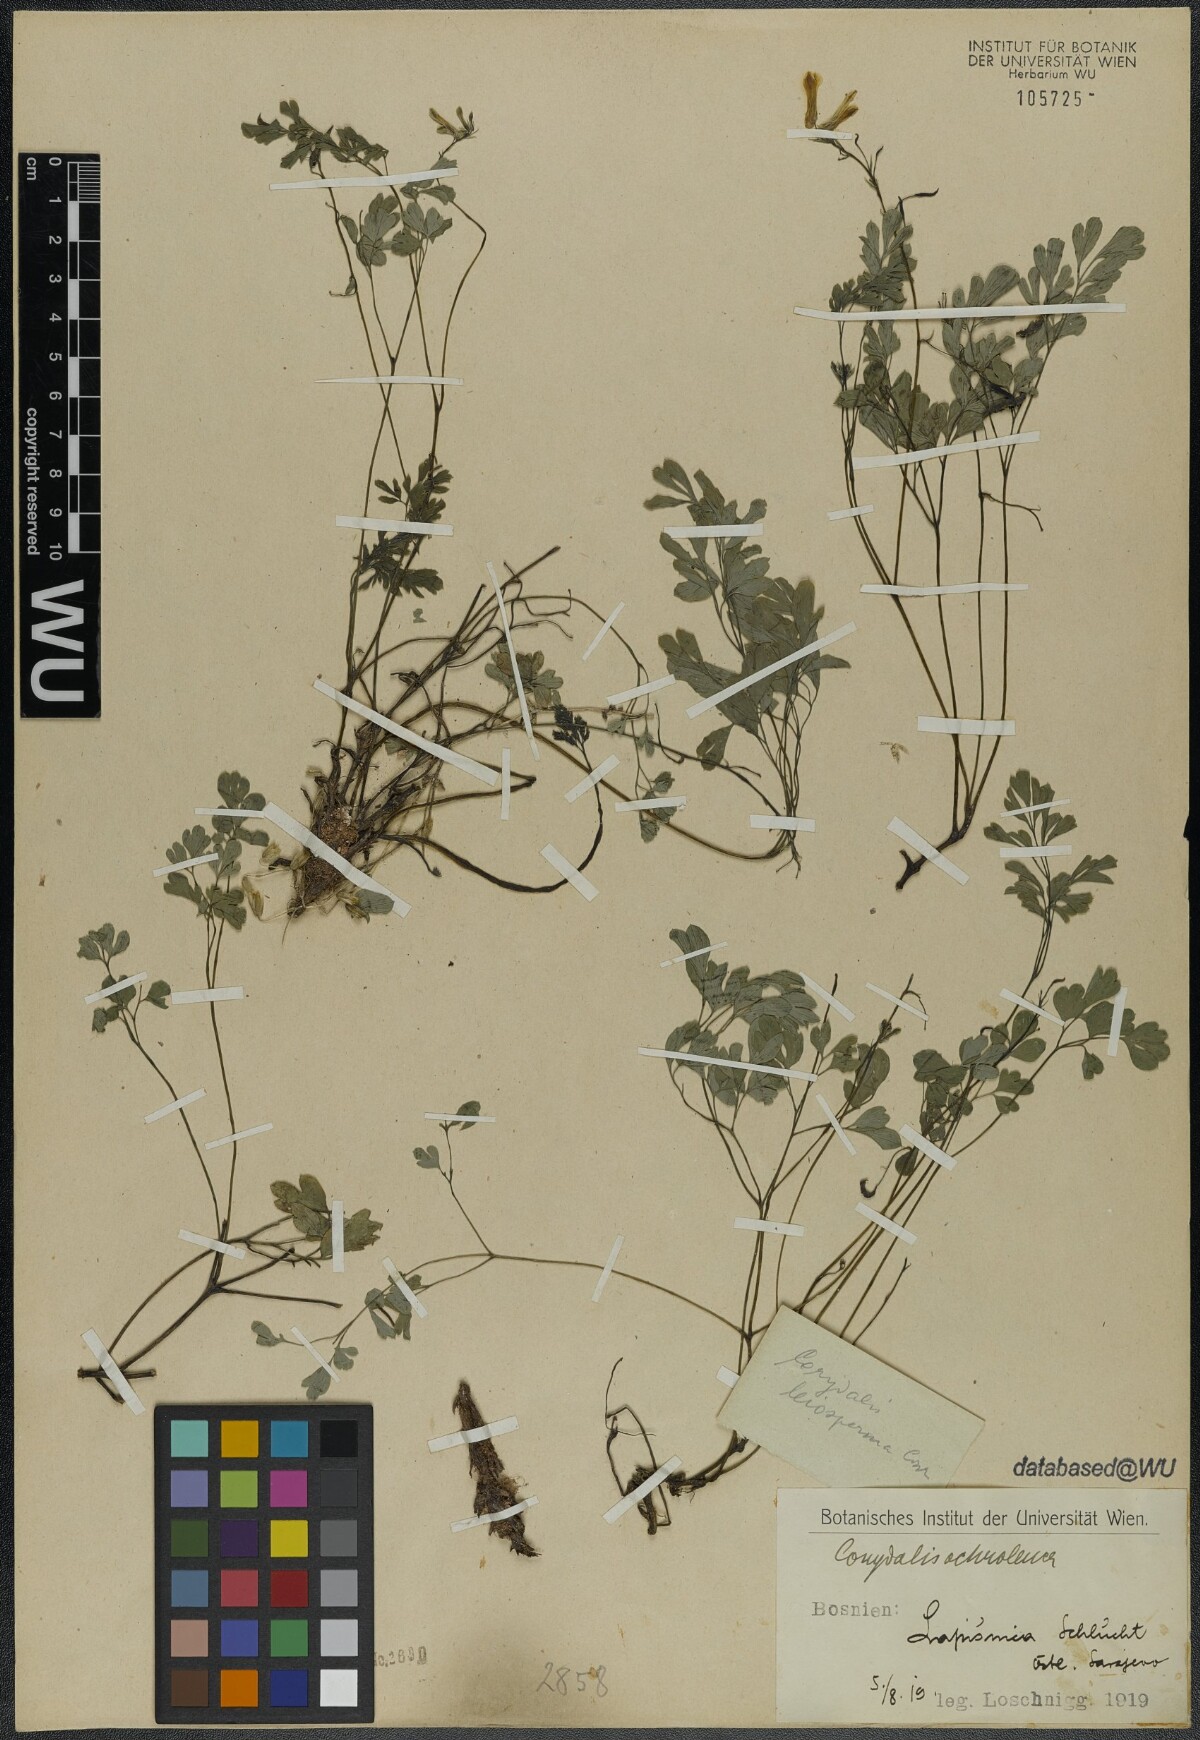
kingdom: Plantae
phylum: Tracheophyta
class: Magnoliopsida
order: Ranunculales
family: Papaveraceae
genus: Pseudofumaria
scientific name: Pseudofumaria alba
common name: Pale corydalis
